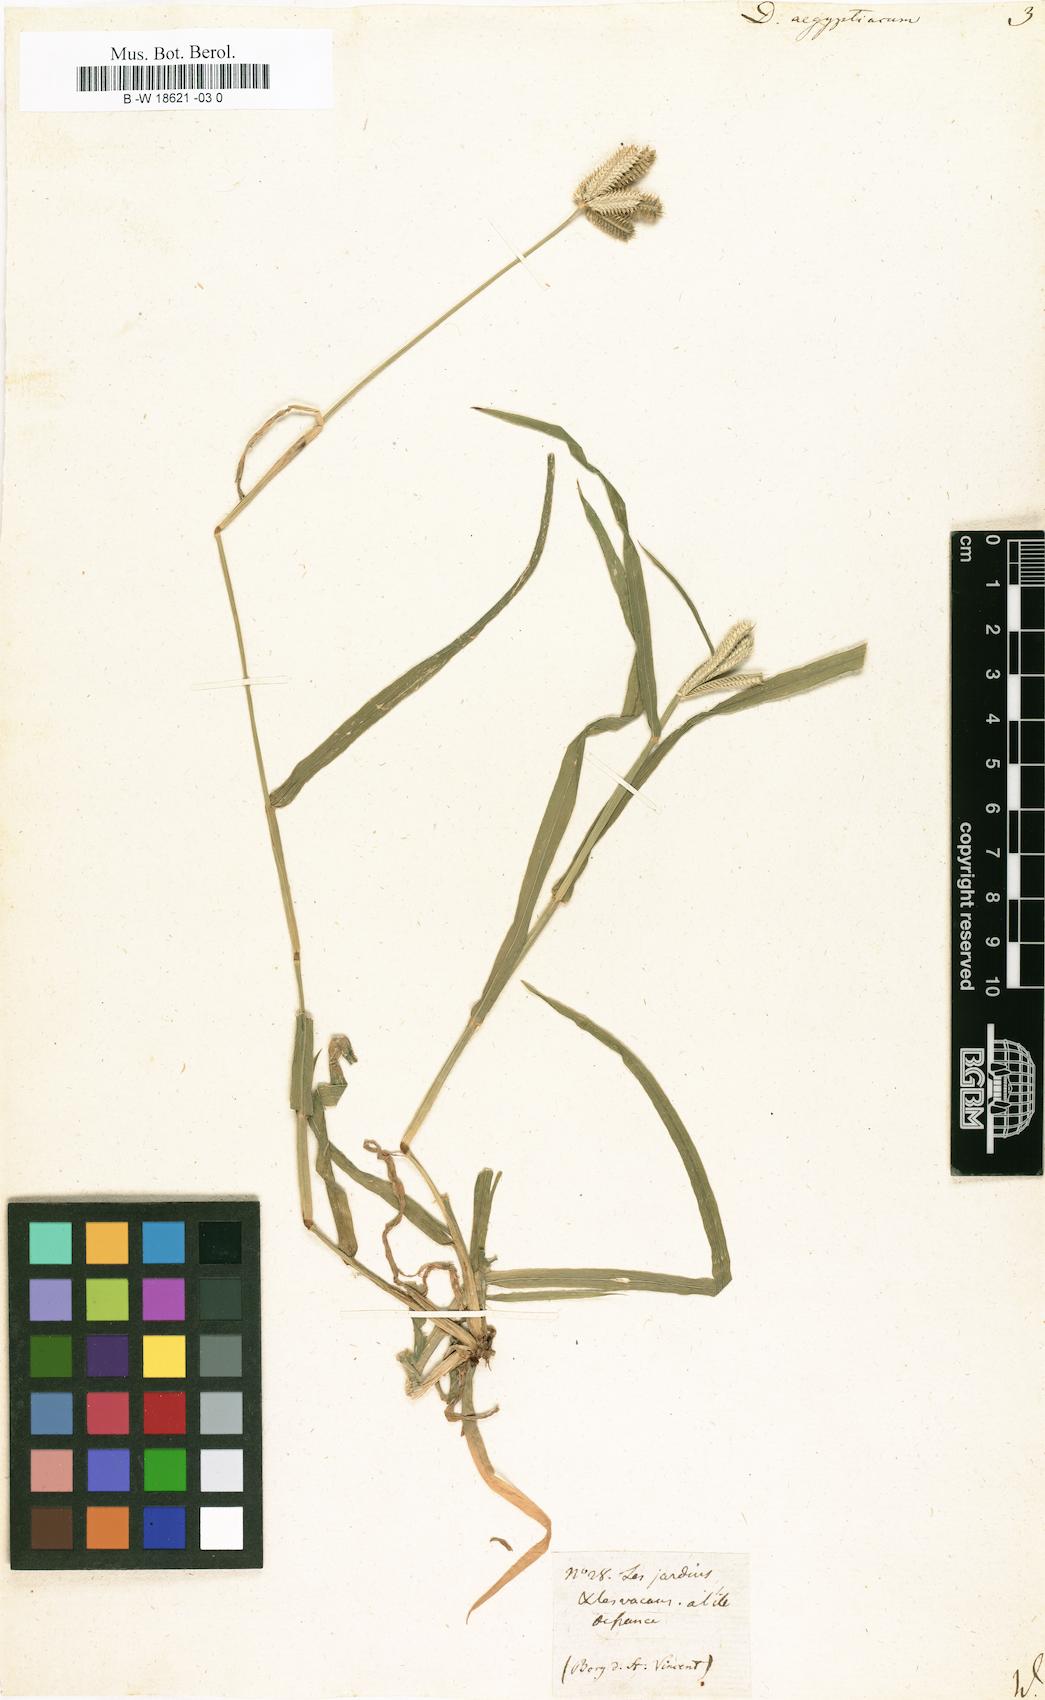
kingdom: Plantae
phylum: Tracheophyta
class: Liliopsida
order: Poales
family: Poaceae
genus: Dactyloctenium
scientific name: Dactyloctenium aegyptium
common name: Egyptian grass
